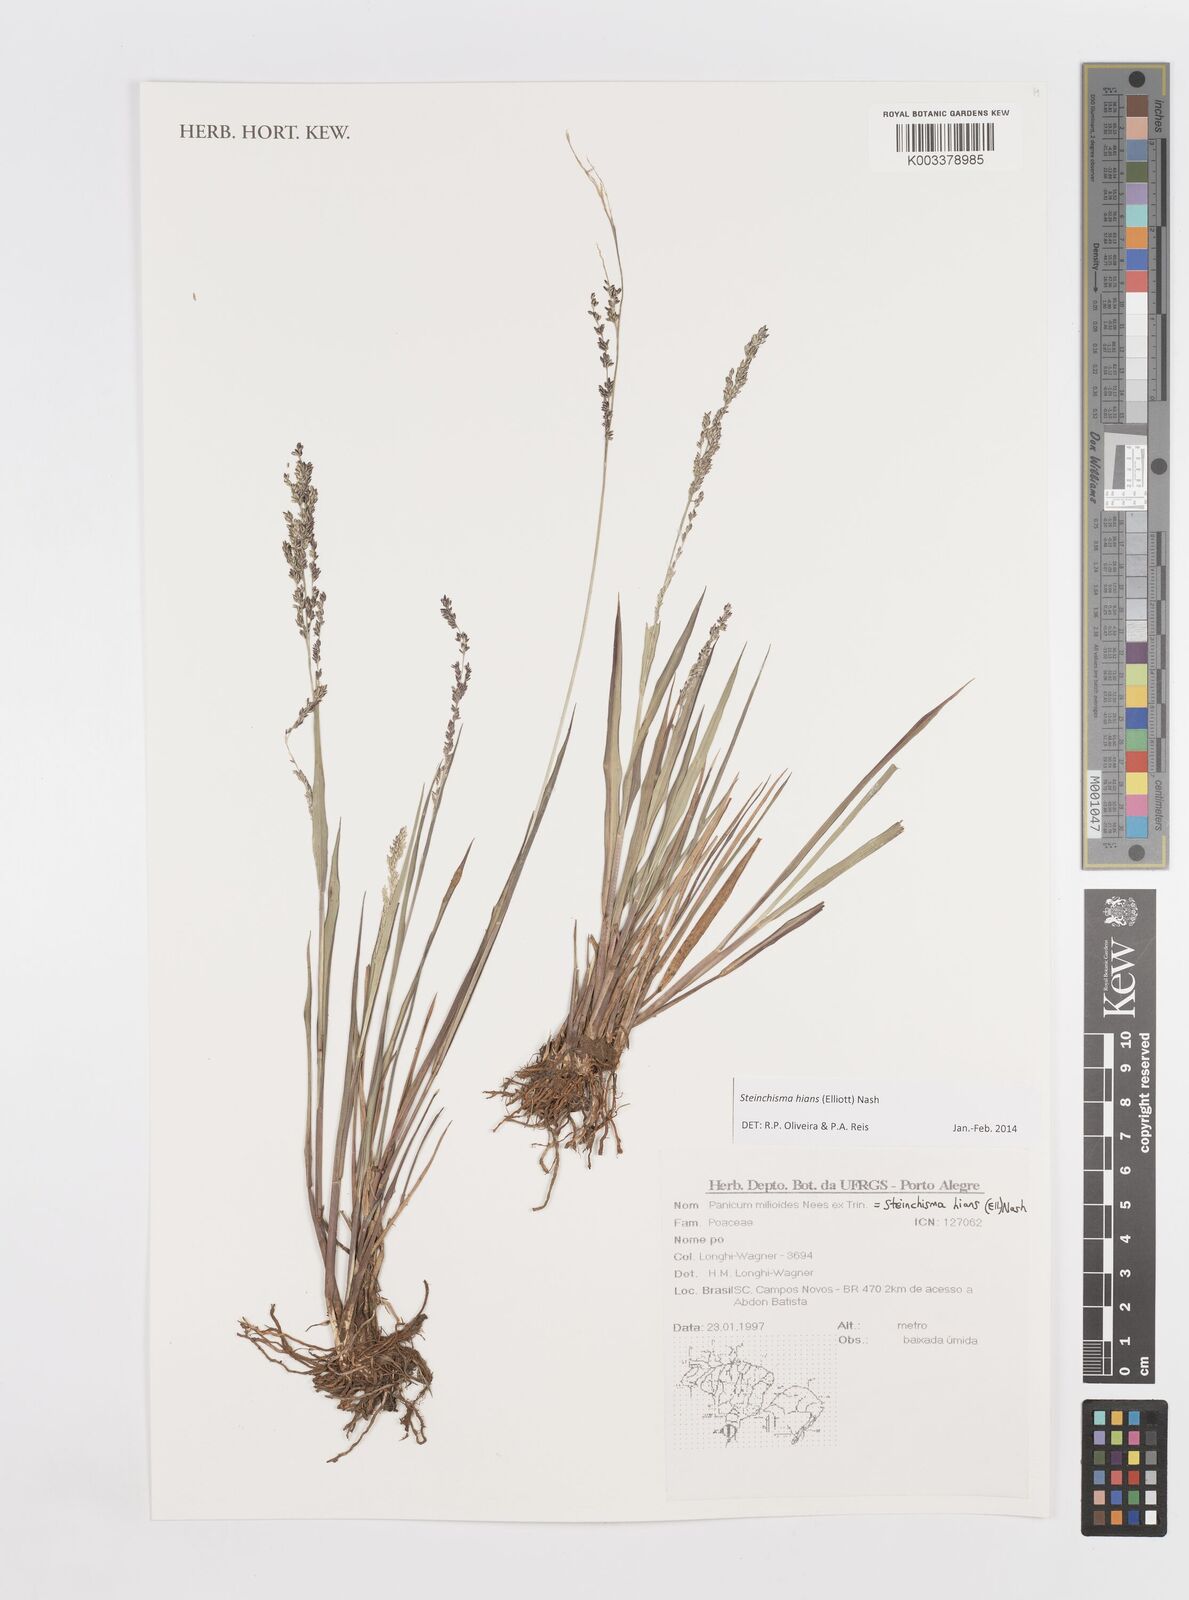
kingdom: Plantae
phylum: Tracheophyta
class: Liliopsida
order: Poales
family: Poaceae
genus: Steinchisma
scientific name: Steinchisma hians
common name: Gaping panic grass
